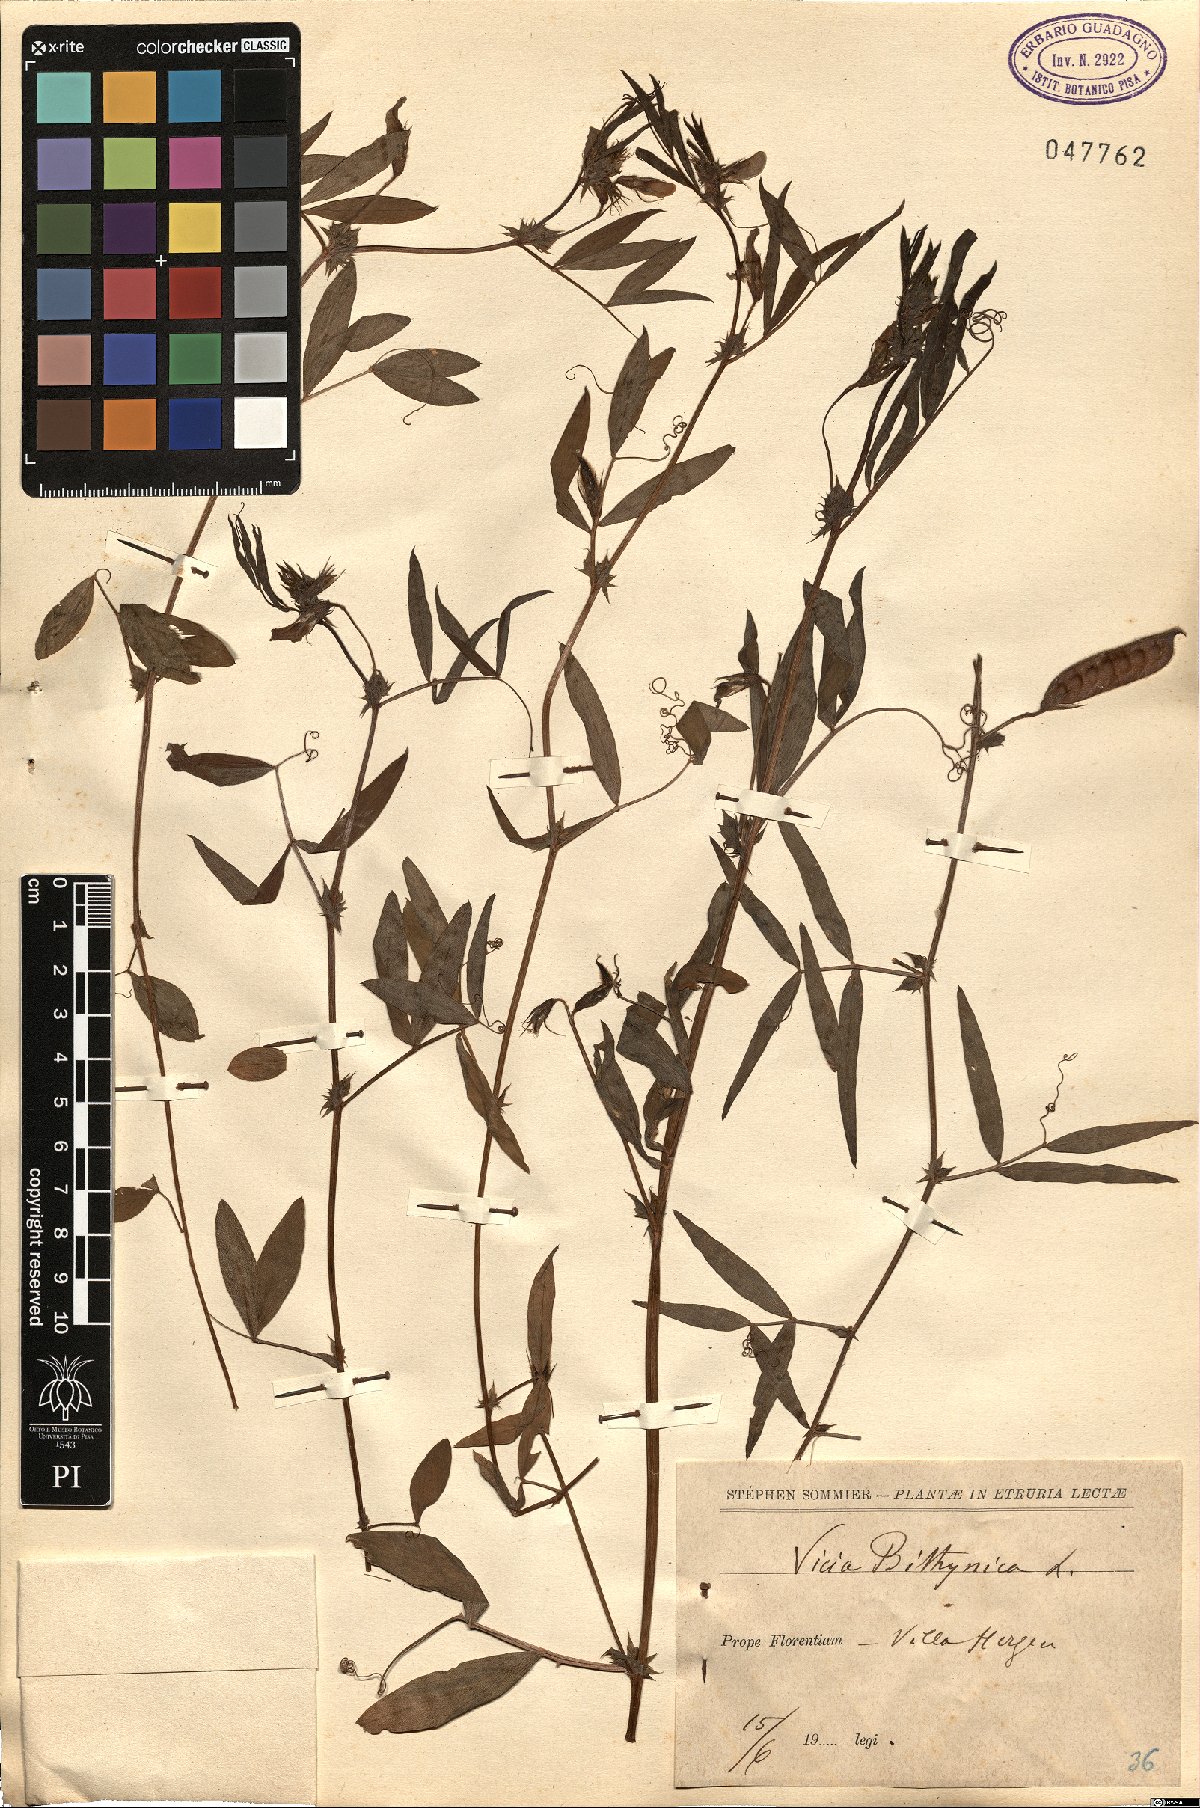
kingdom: Plantae
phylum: Tracheophyta
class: Magnoliopsida
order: Fabales
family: Fabaceae
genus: Vicia
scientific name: Vicia bithynica
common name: Bithynian vetch
